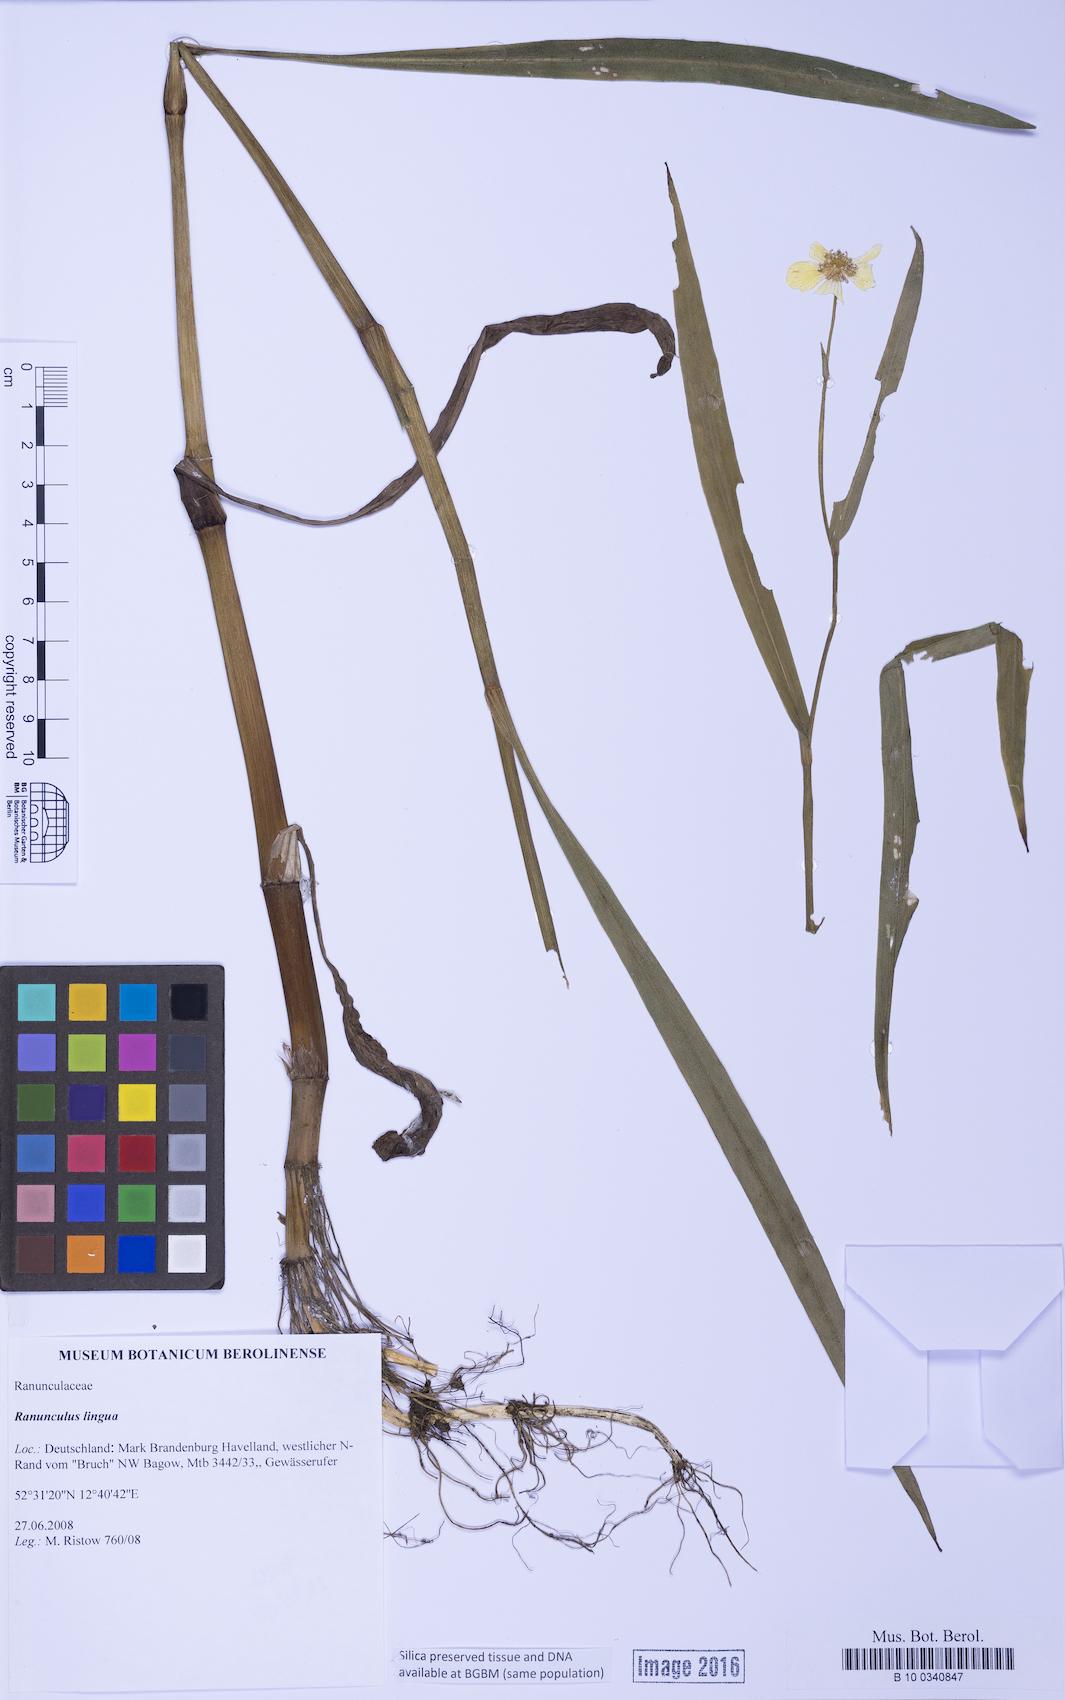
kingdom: Plantae
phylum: Tracheophyta
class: Magnoliopsida
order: Ranunculales
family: Ranunculaceae
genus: Ranunculus
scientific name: Ranunculus lingua
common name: Greater spearwort
